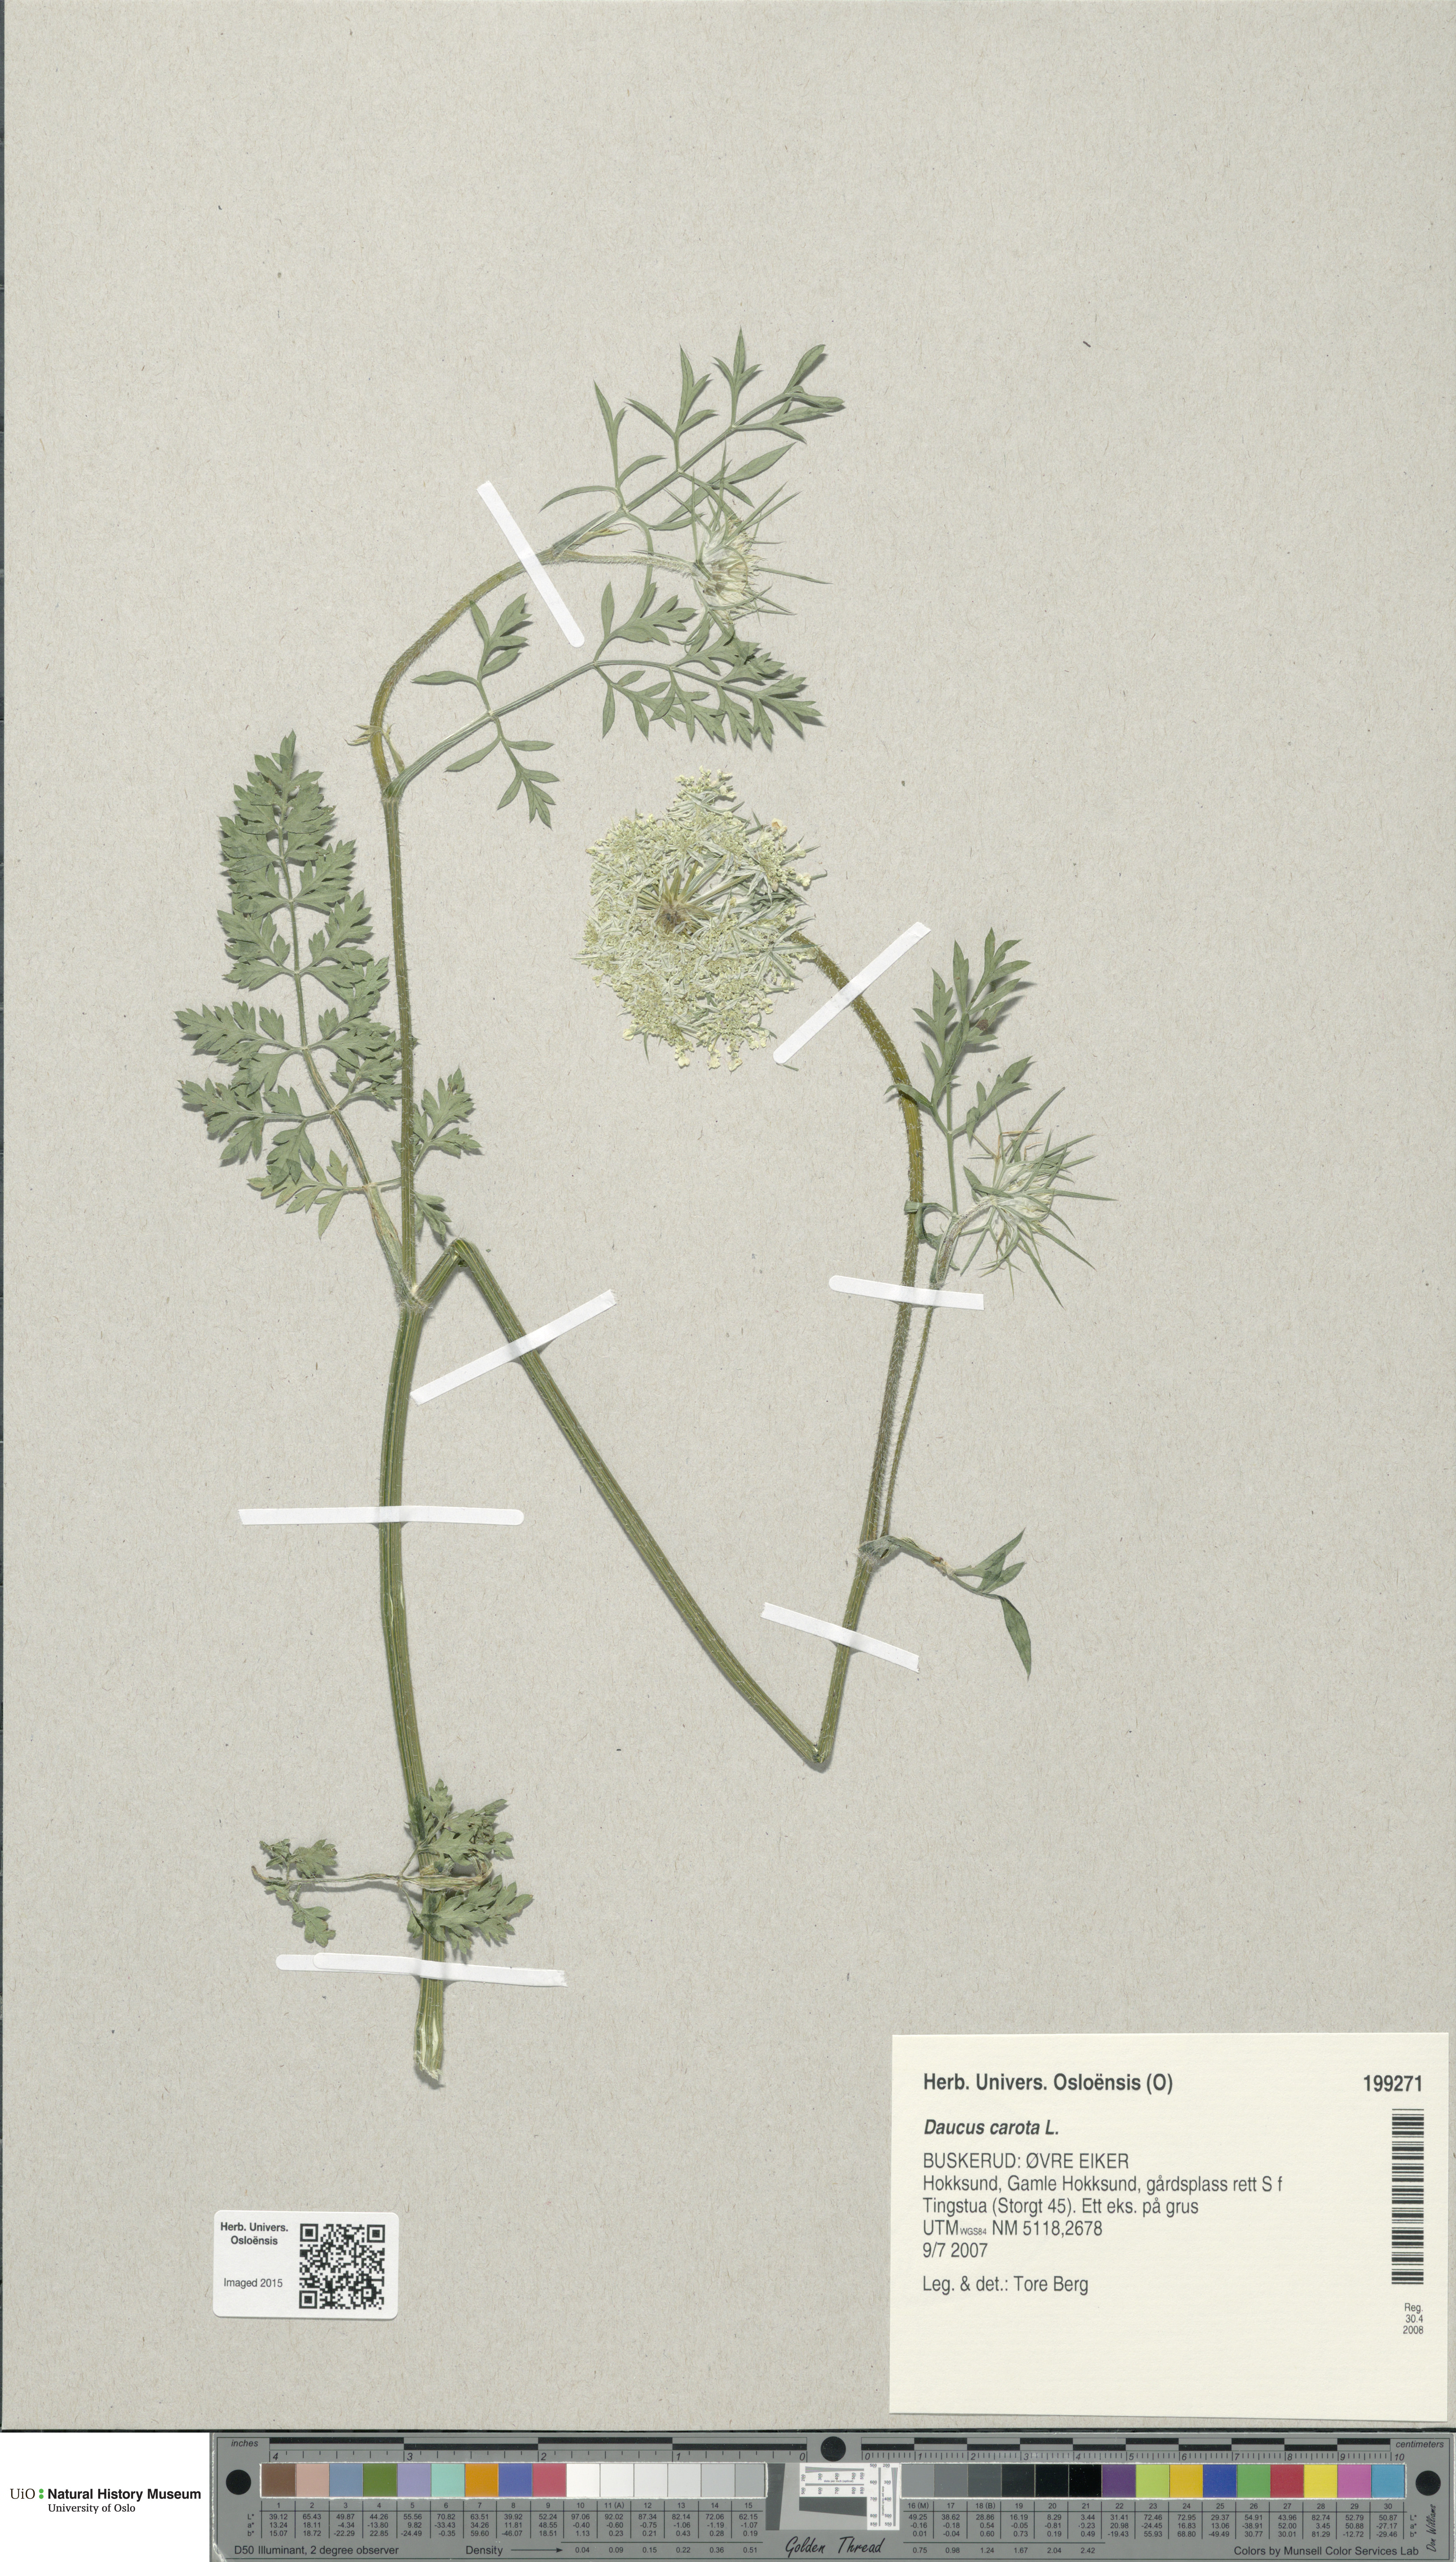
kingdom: Plantae
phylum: Tracheophyta
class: Magnoliopsida
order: Apiales
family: Apiaceae
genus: Daucus
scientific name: Daucus carota
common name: Wild carrot
